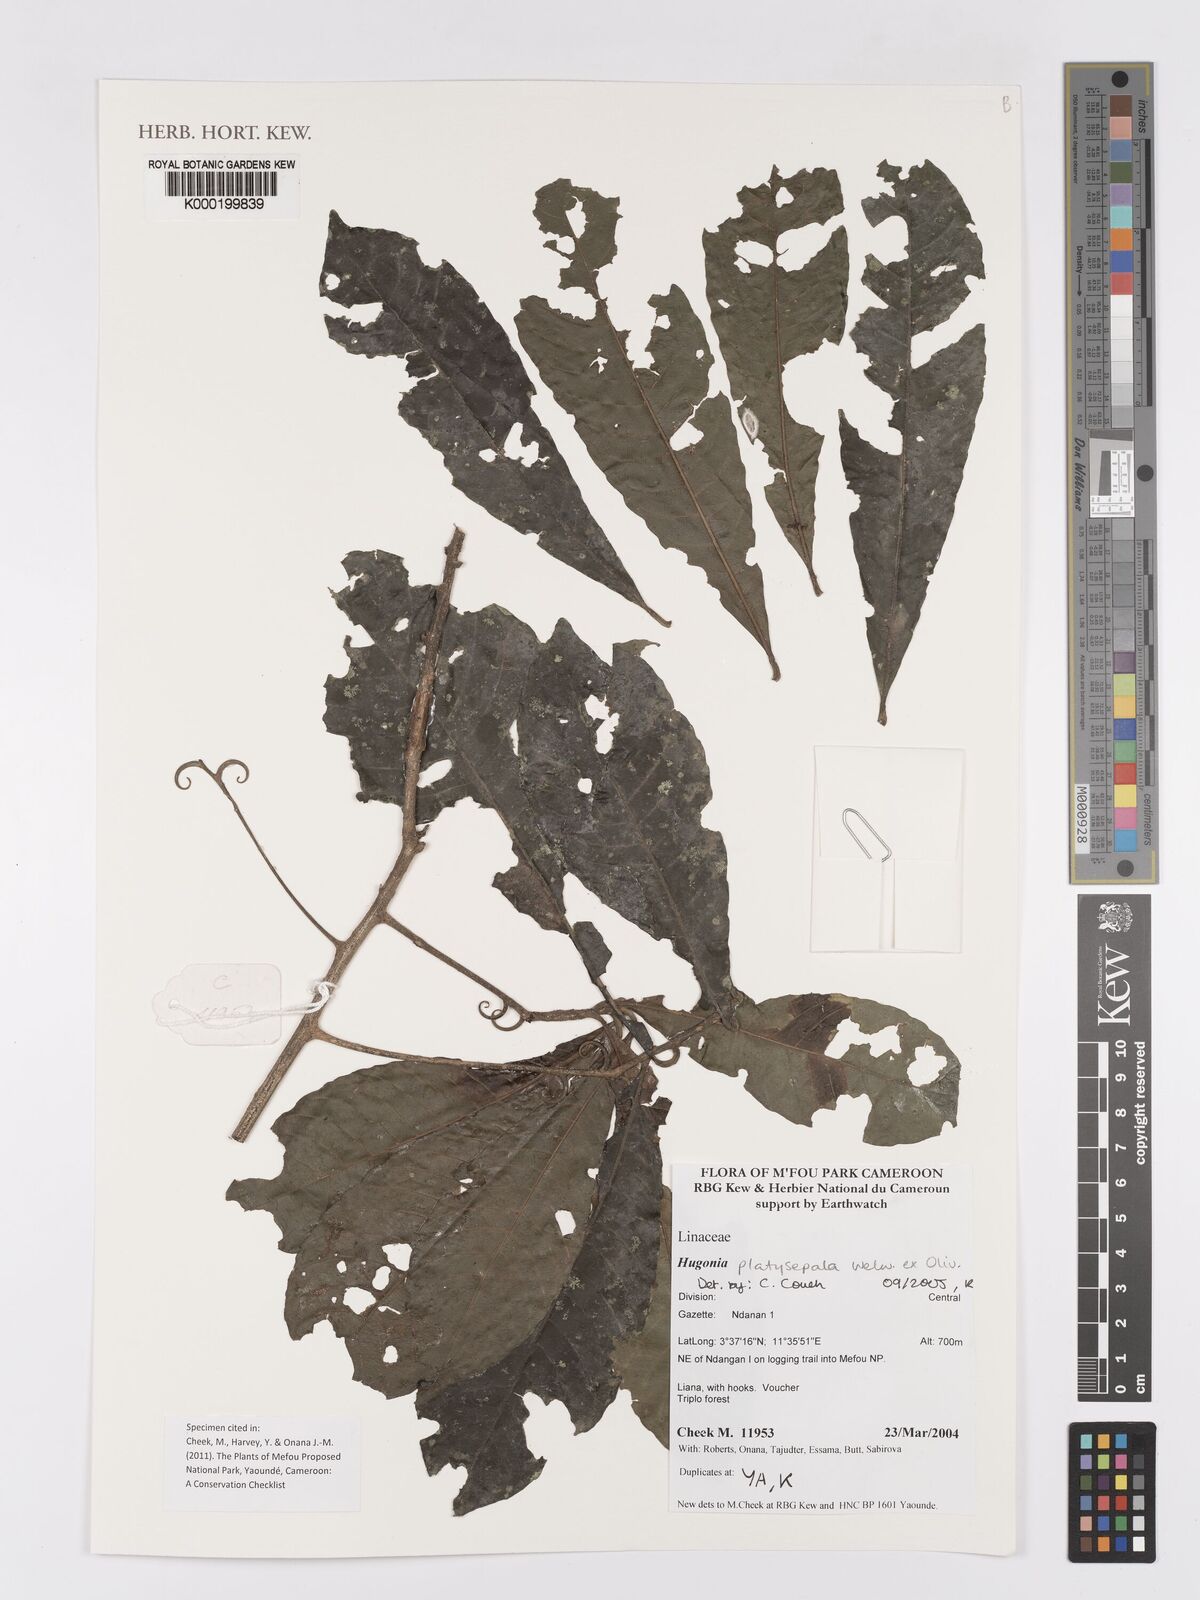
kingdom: Plantae
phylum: Tracheophyta
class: Magnoliopsida
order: Malpighiales
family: Linaceae
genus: Hugonia
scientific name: Hugonia platysepala
